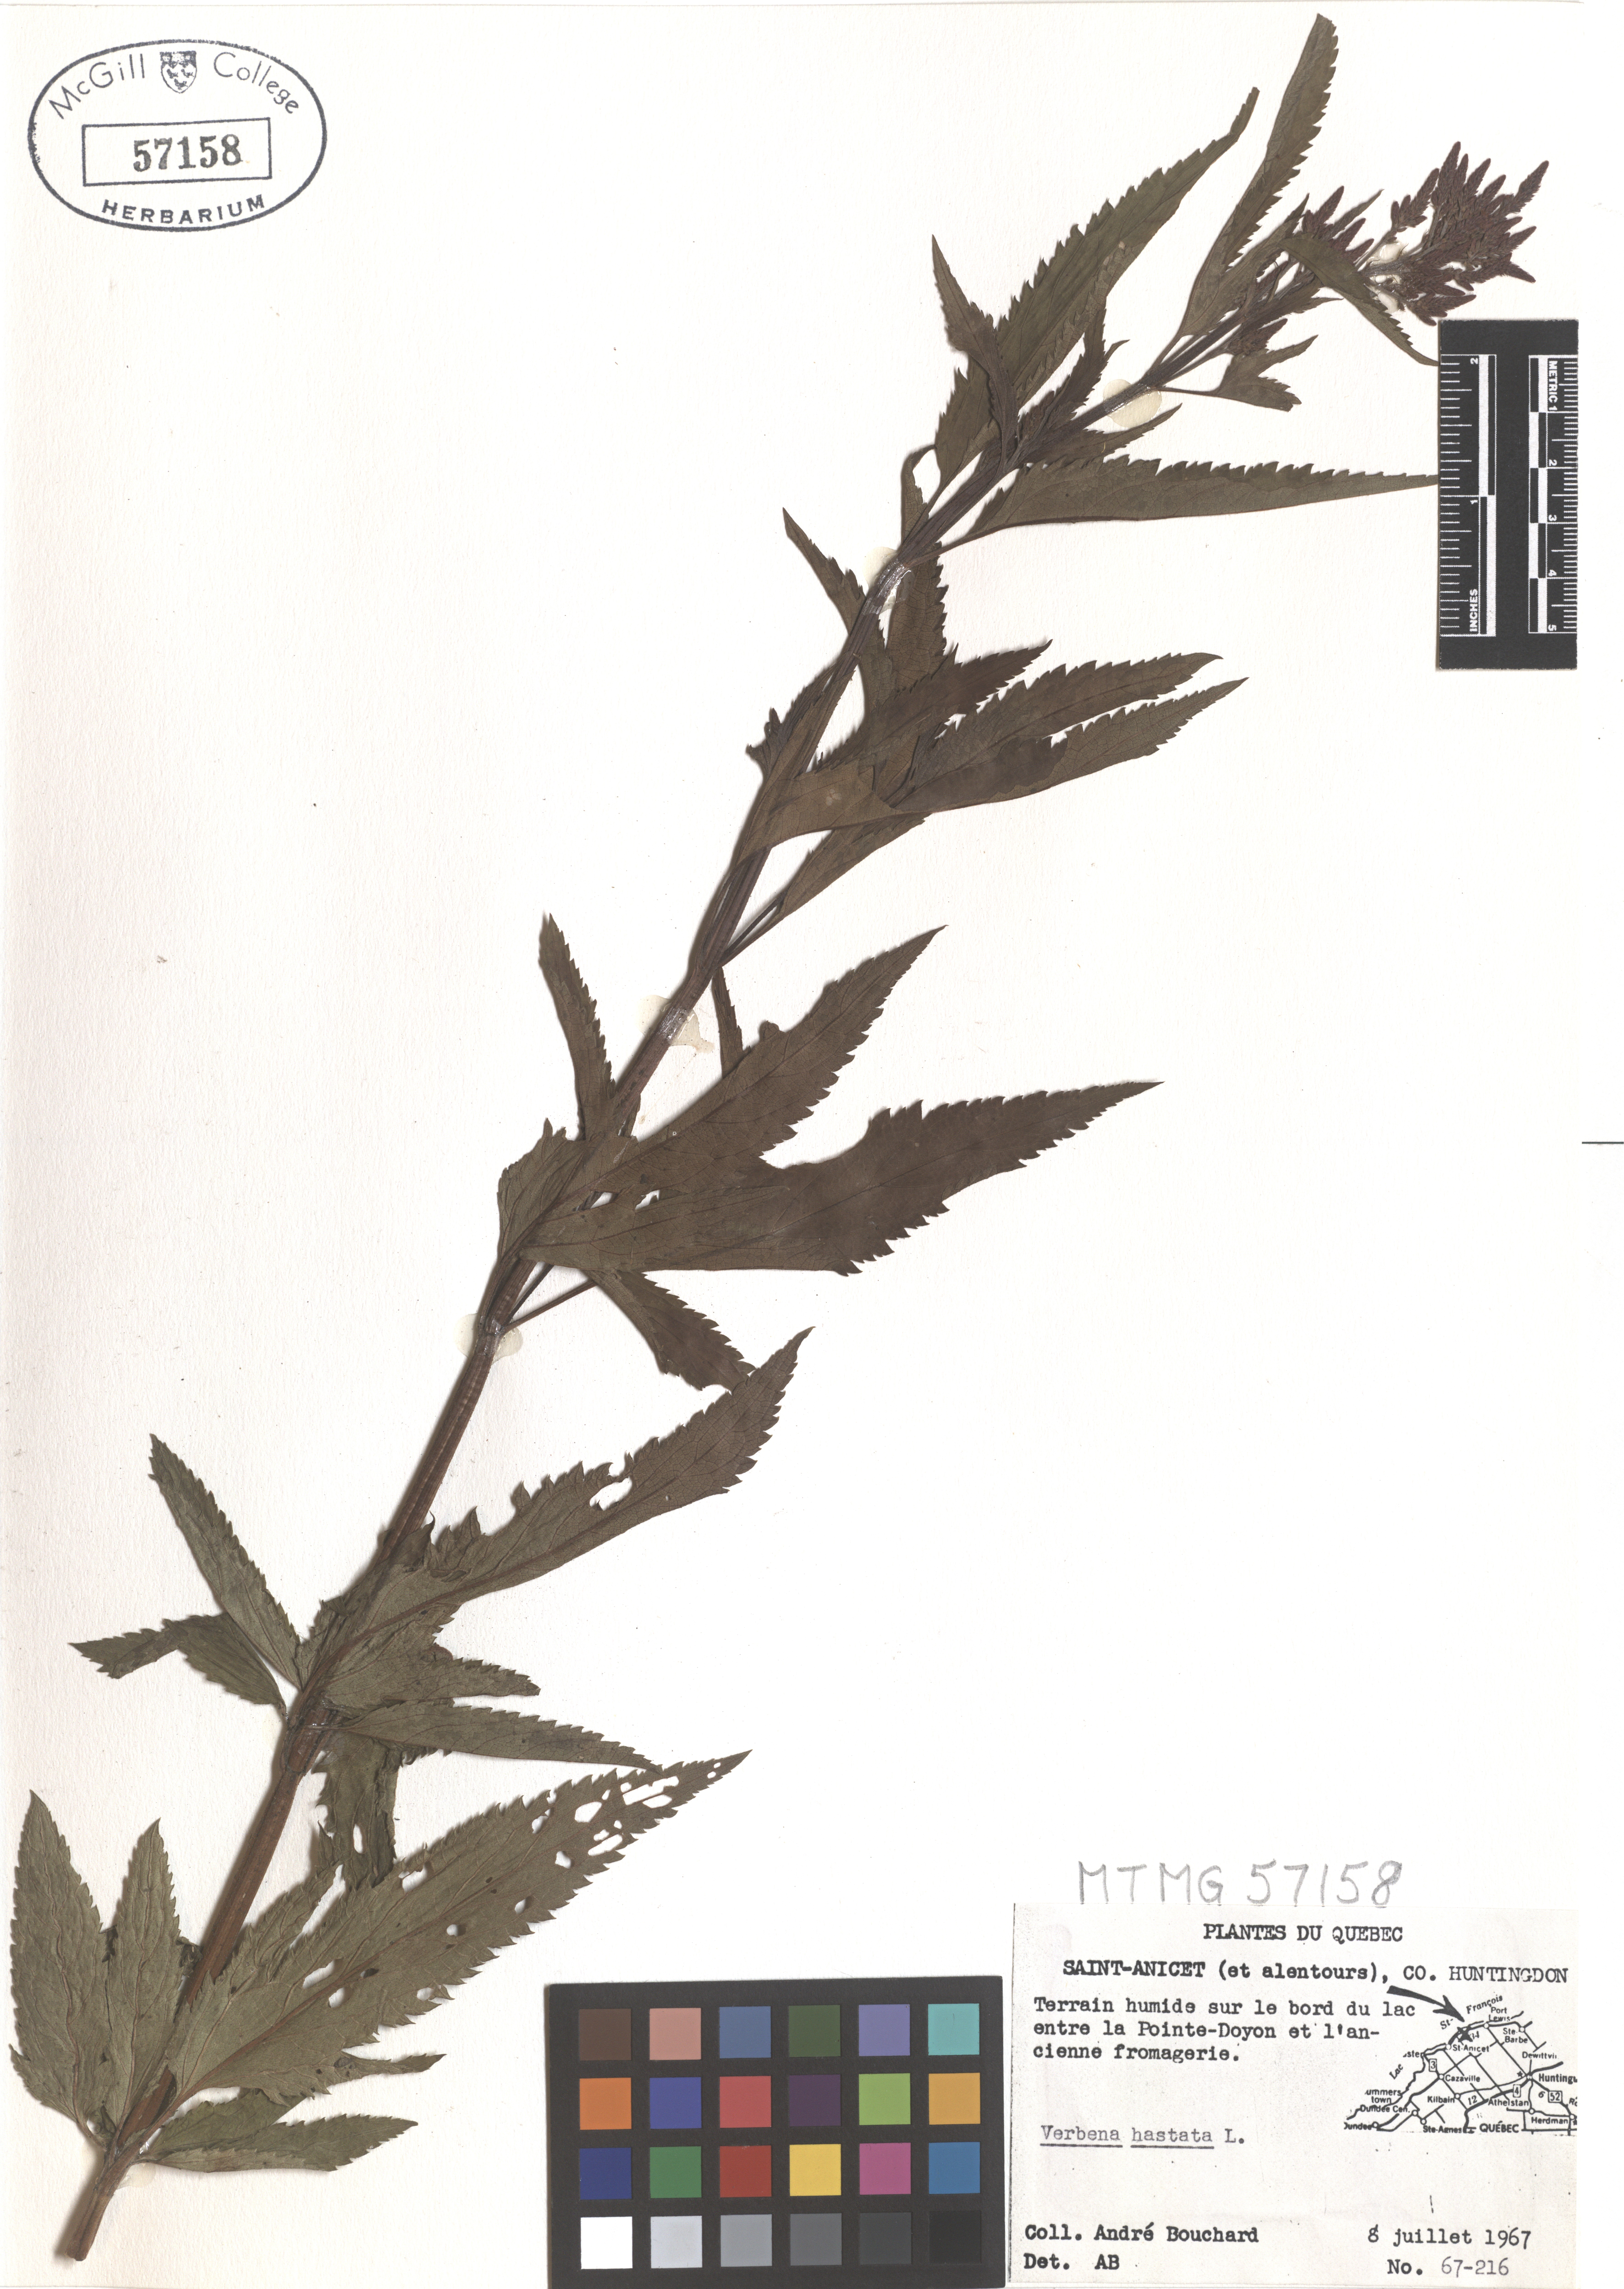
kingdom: Plantae
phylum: Tracheophyta
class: Magnoliopsida
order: Lamiales
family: Verbenaceae
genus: Verbena
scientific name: Verbena hastata
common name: American blue vervain
